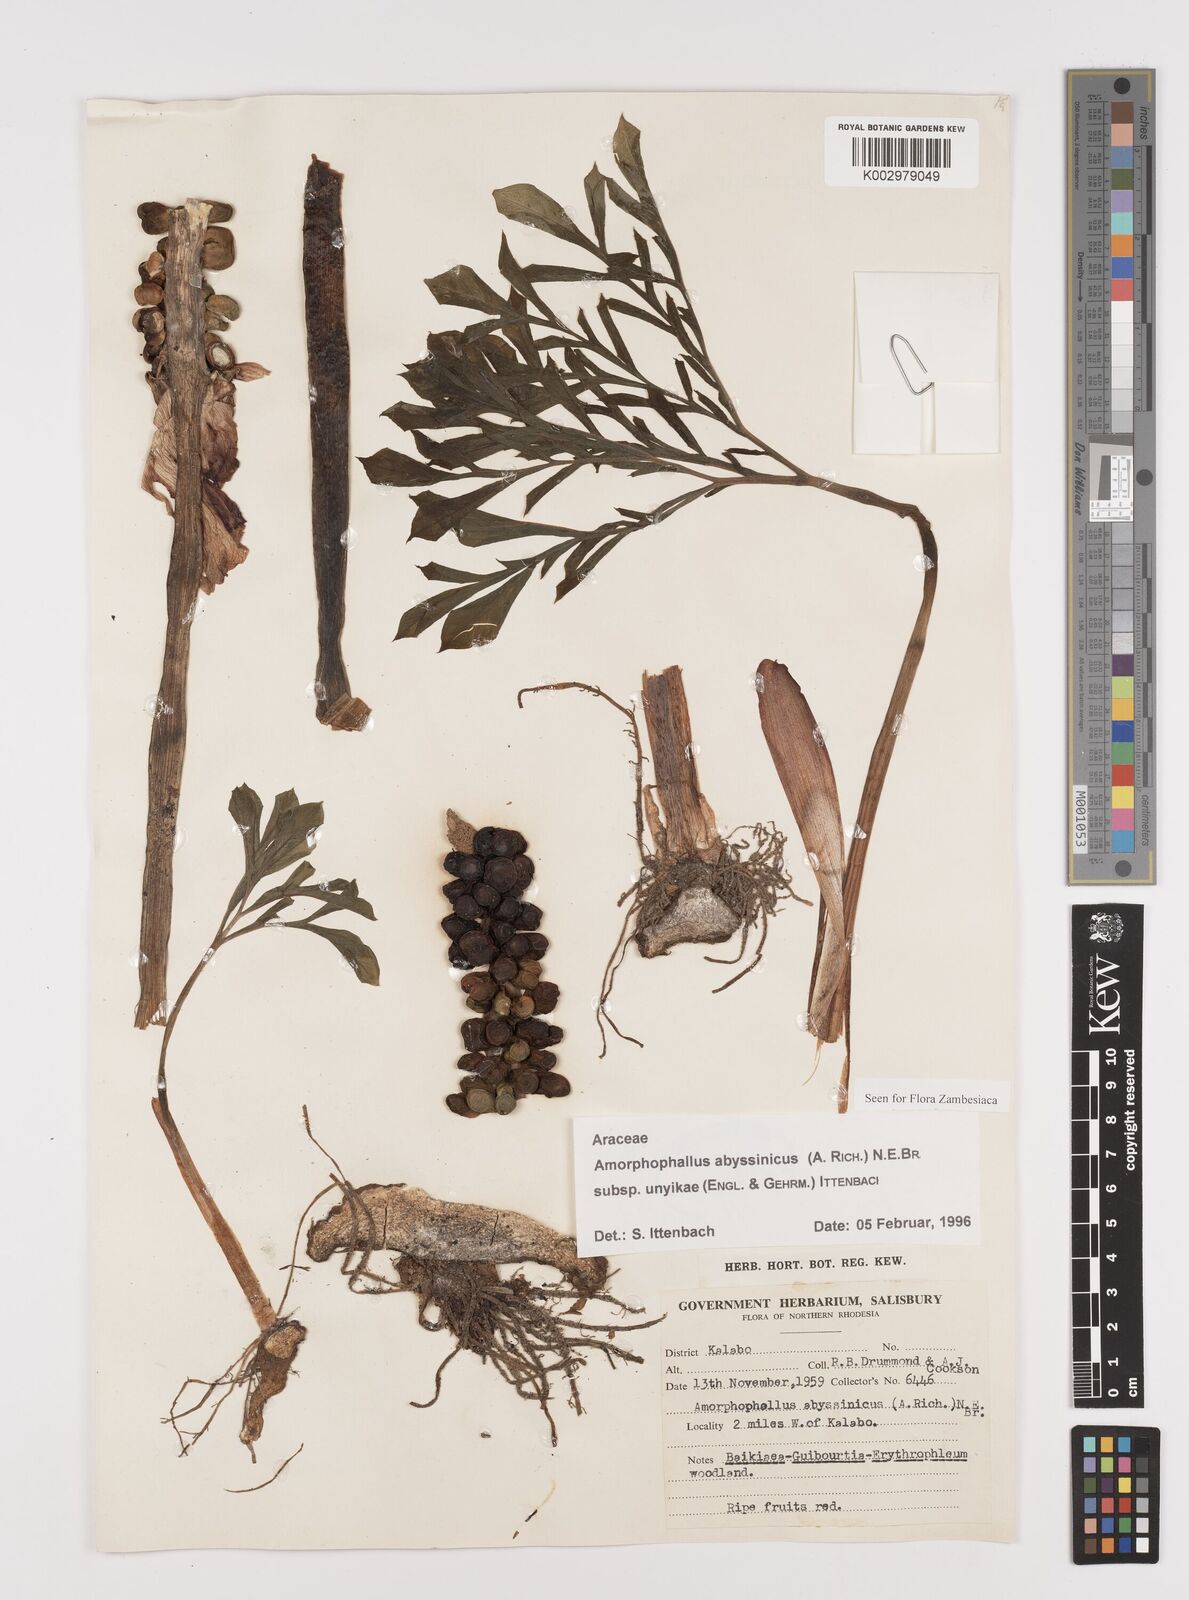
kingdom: Plantae
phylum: Tracheophyta
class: Liliopsida
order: Alismatales
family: Araceae
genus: Amorphophallus
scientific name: Amorphophallus abyssinicus
